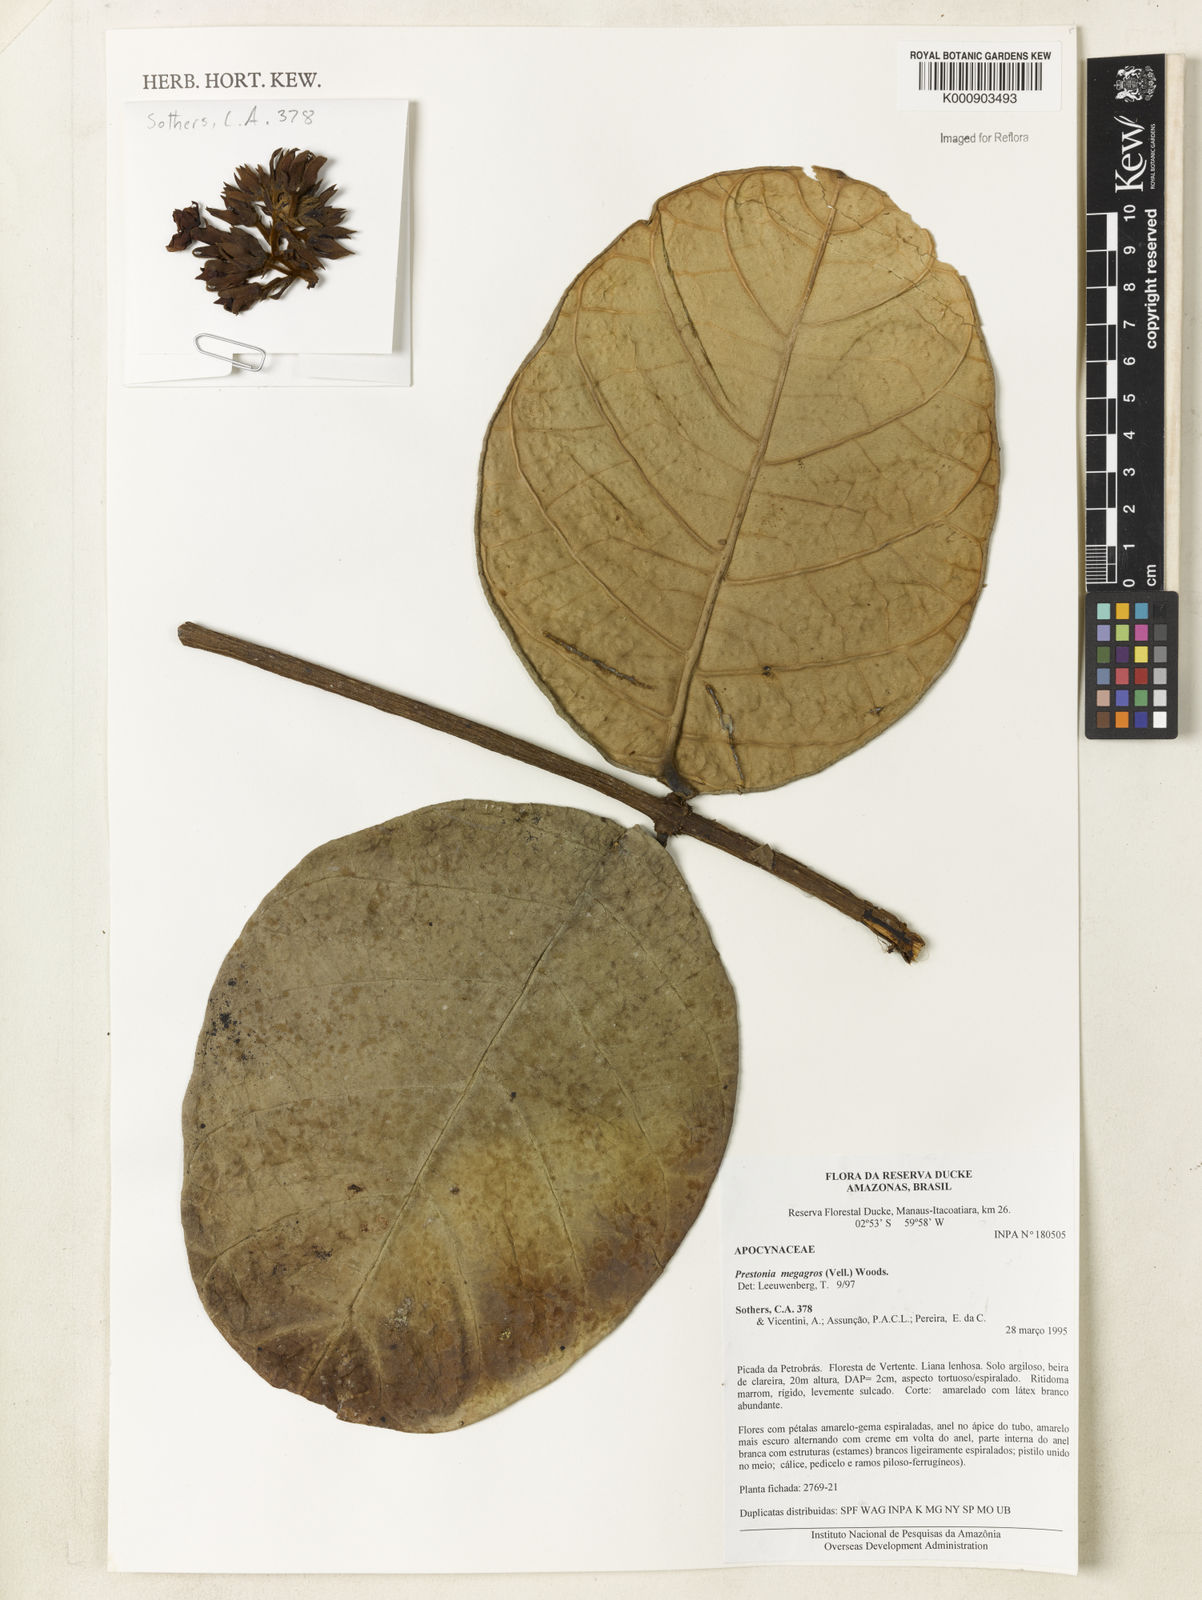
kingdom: Plantae
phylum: Tracheophyta
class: Magnoliopsida
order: Gentianales
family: Apocynaceae
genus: Prestonia
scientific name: Prestonia megagros
